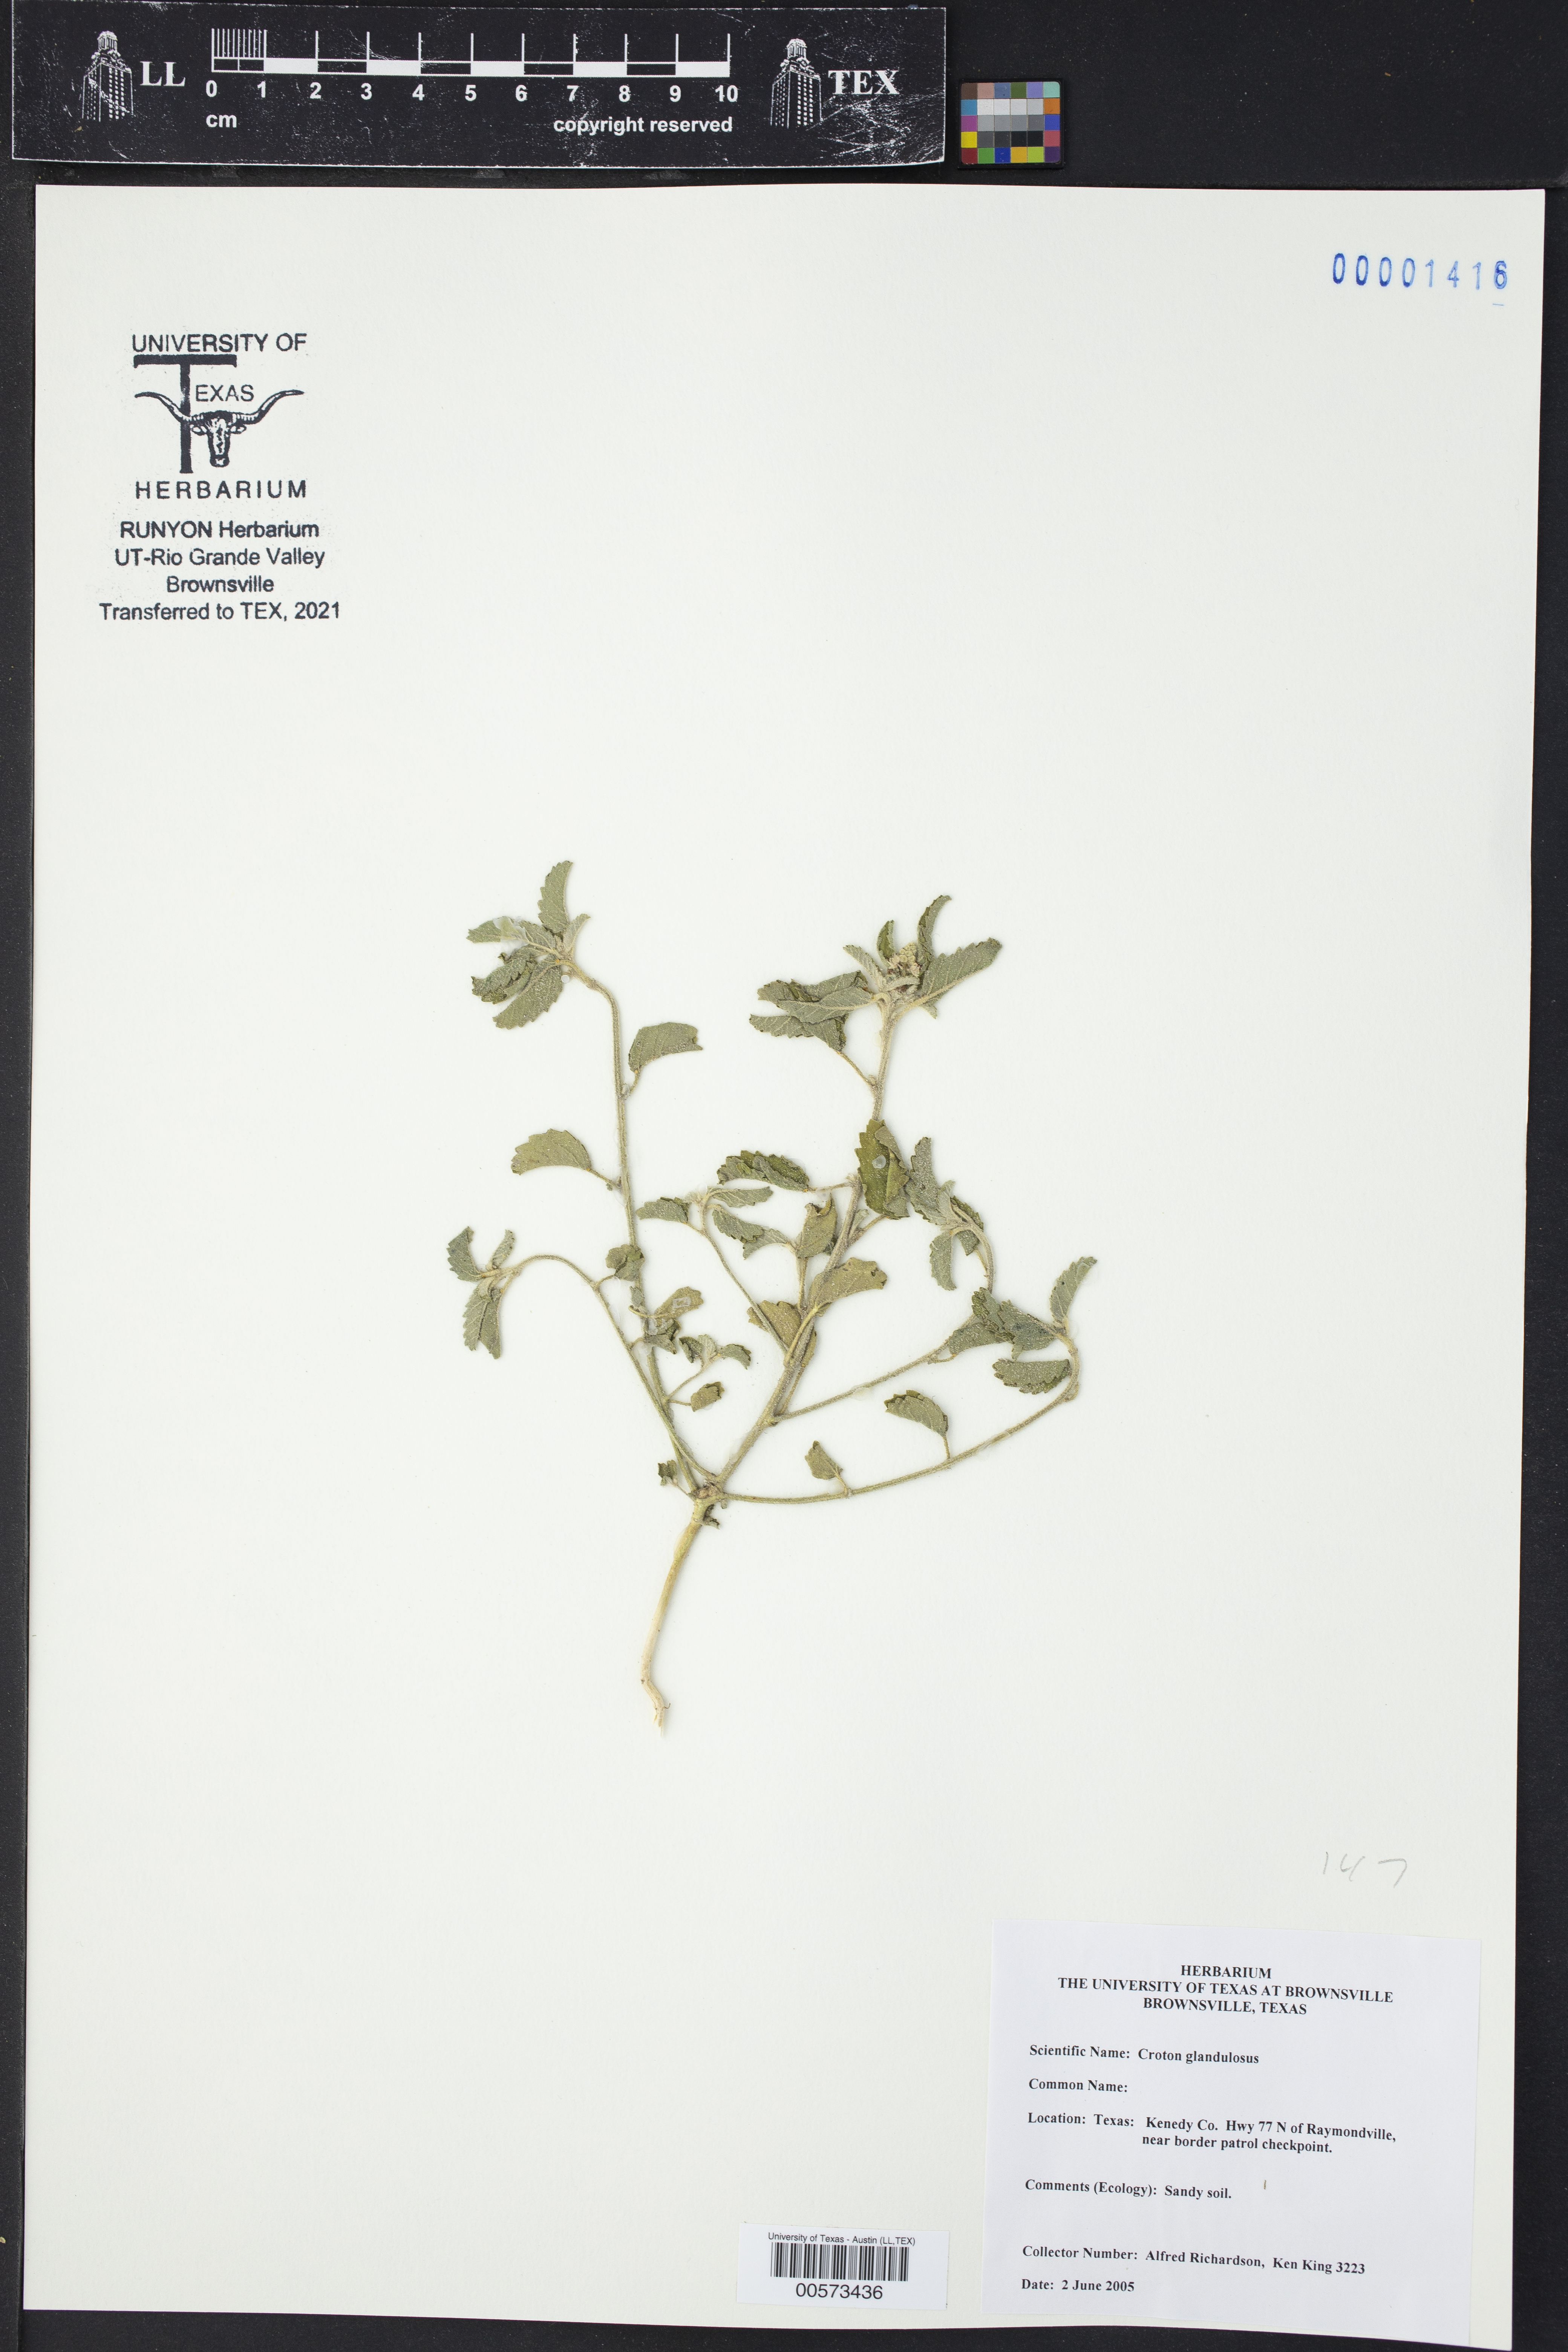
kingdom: Plantae
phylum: Tracheophyta
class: Magnoliopsida
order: Malpighiales
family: Euphorbiaceae
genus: Croton
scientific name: Croton glandulosus
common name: Tropic croton
